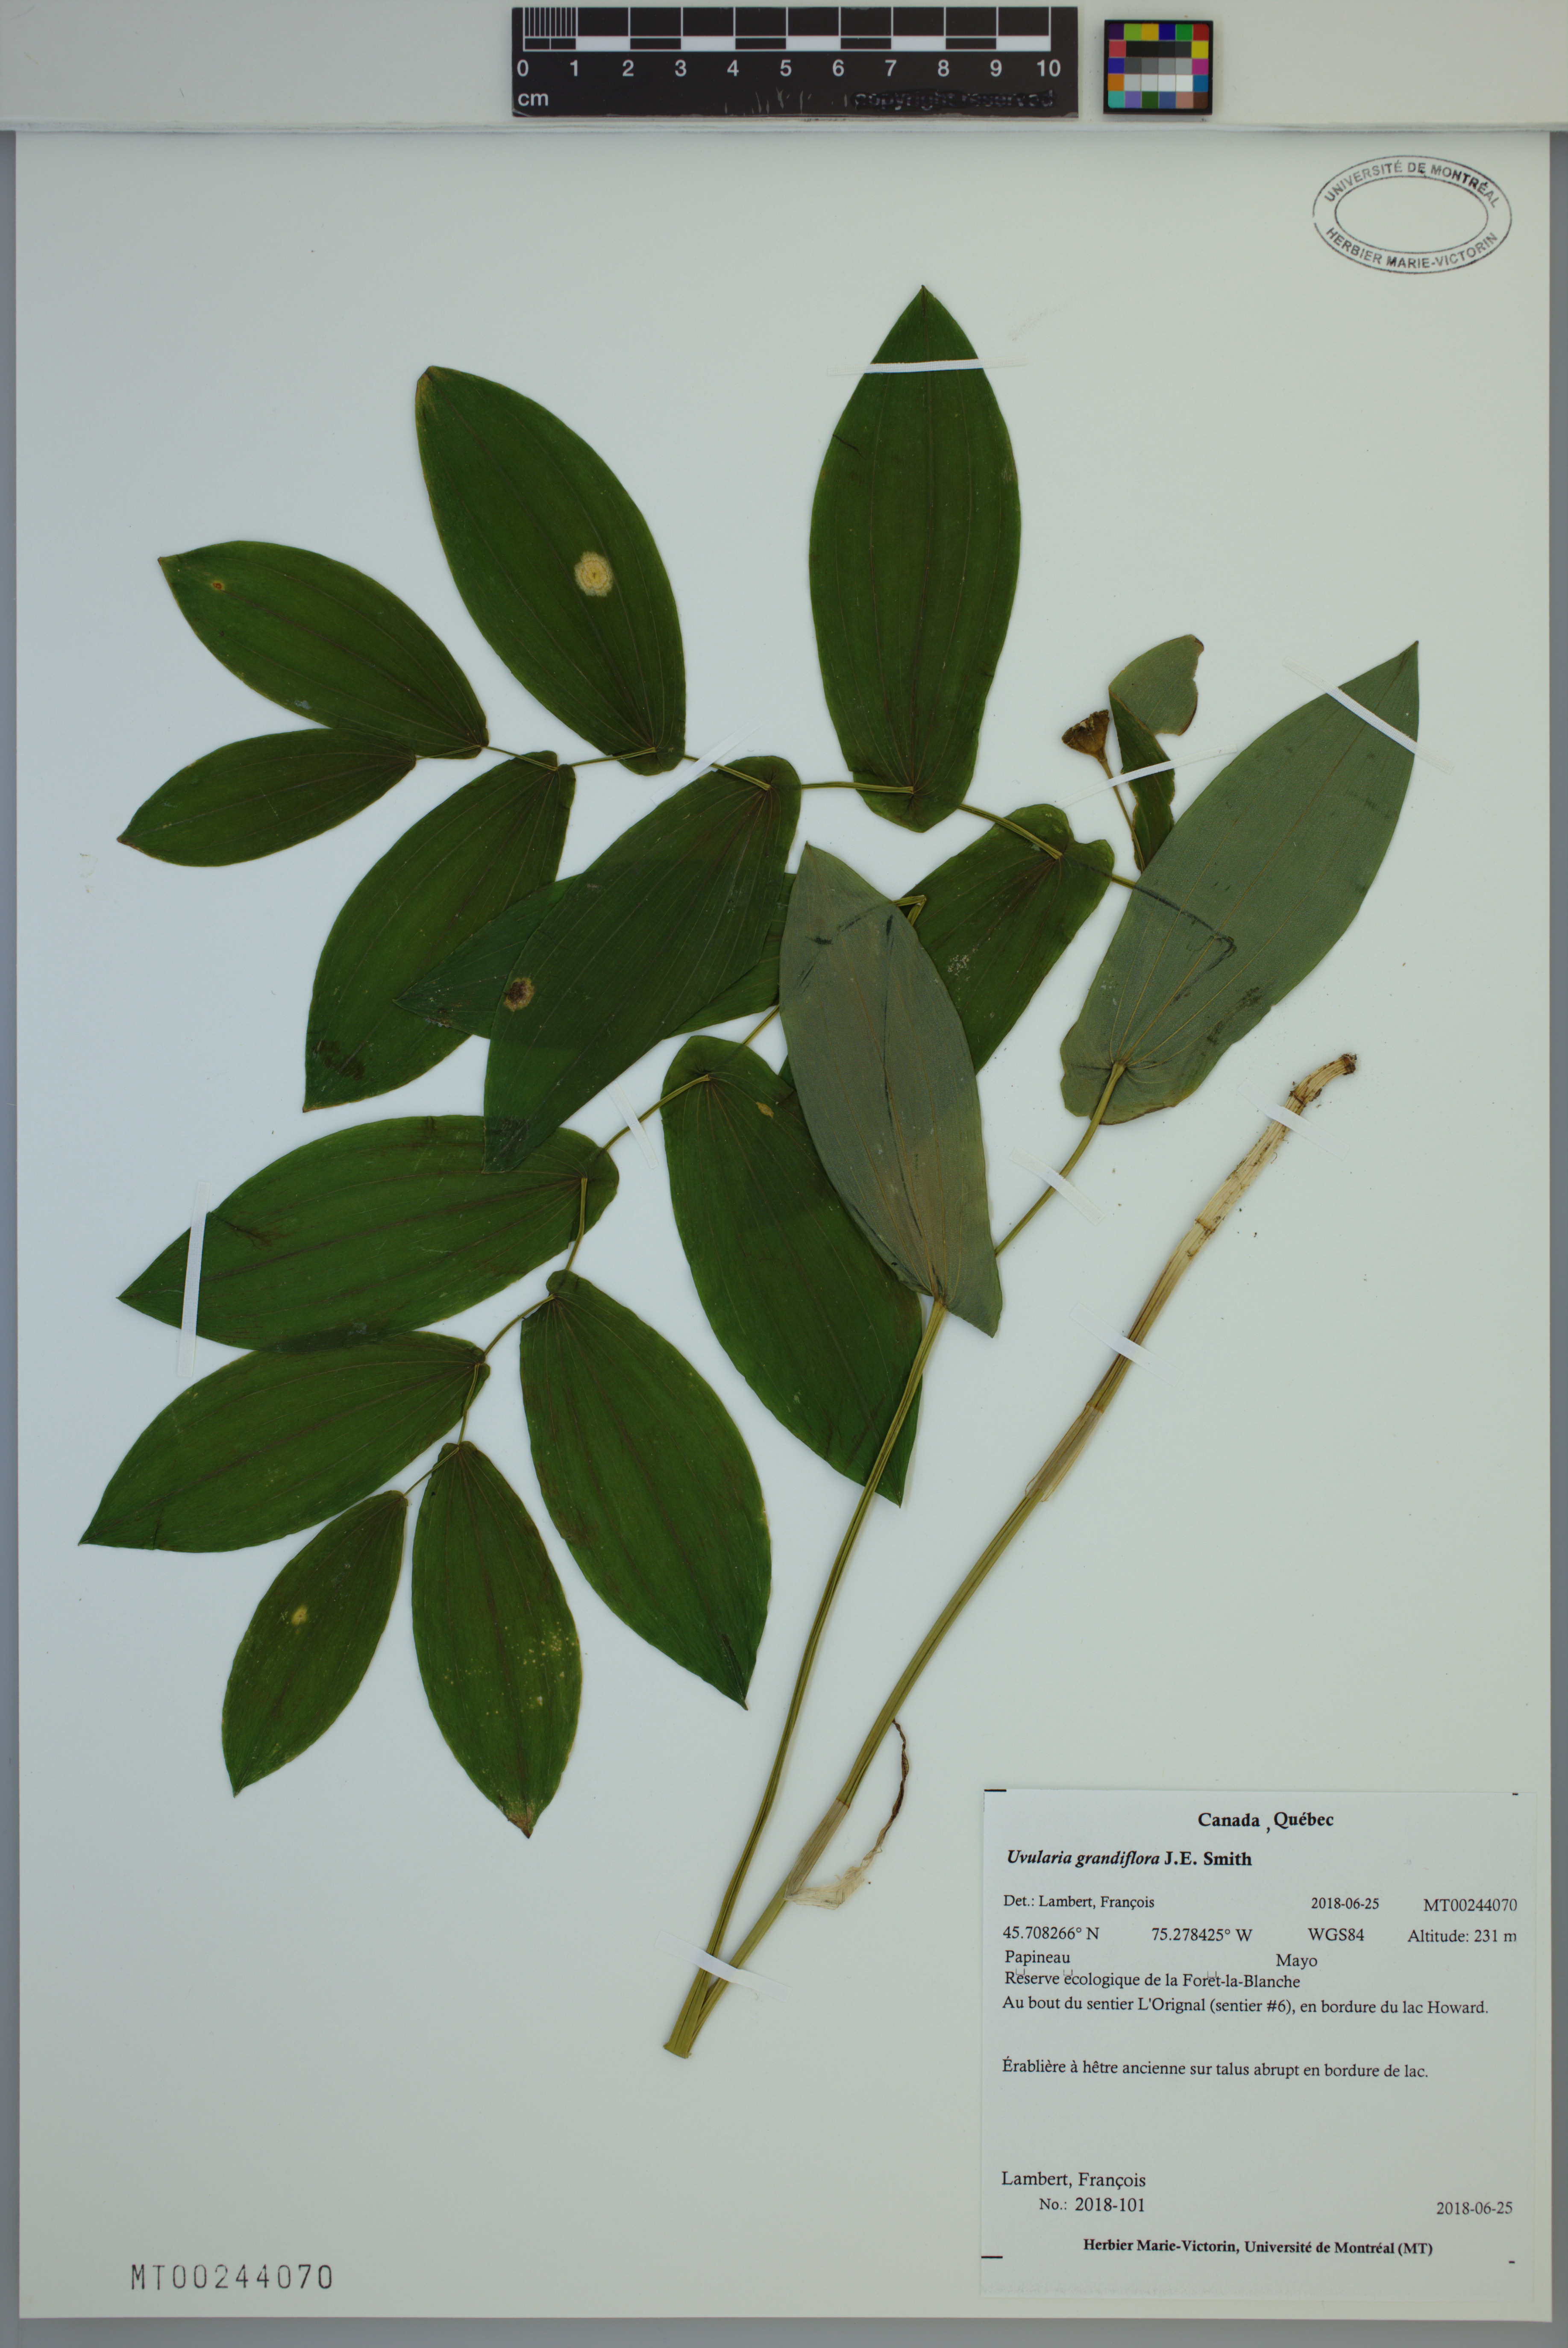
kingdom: Plantae
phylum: Tracheophyta
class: Liliopsida
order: Liliales
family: Colchicaceae
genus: Uvularia
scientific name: Uvularia grandiflora
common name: Bellwort
